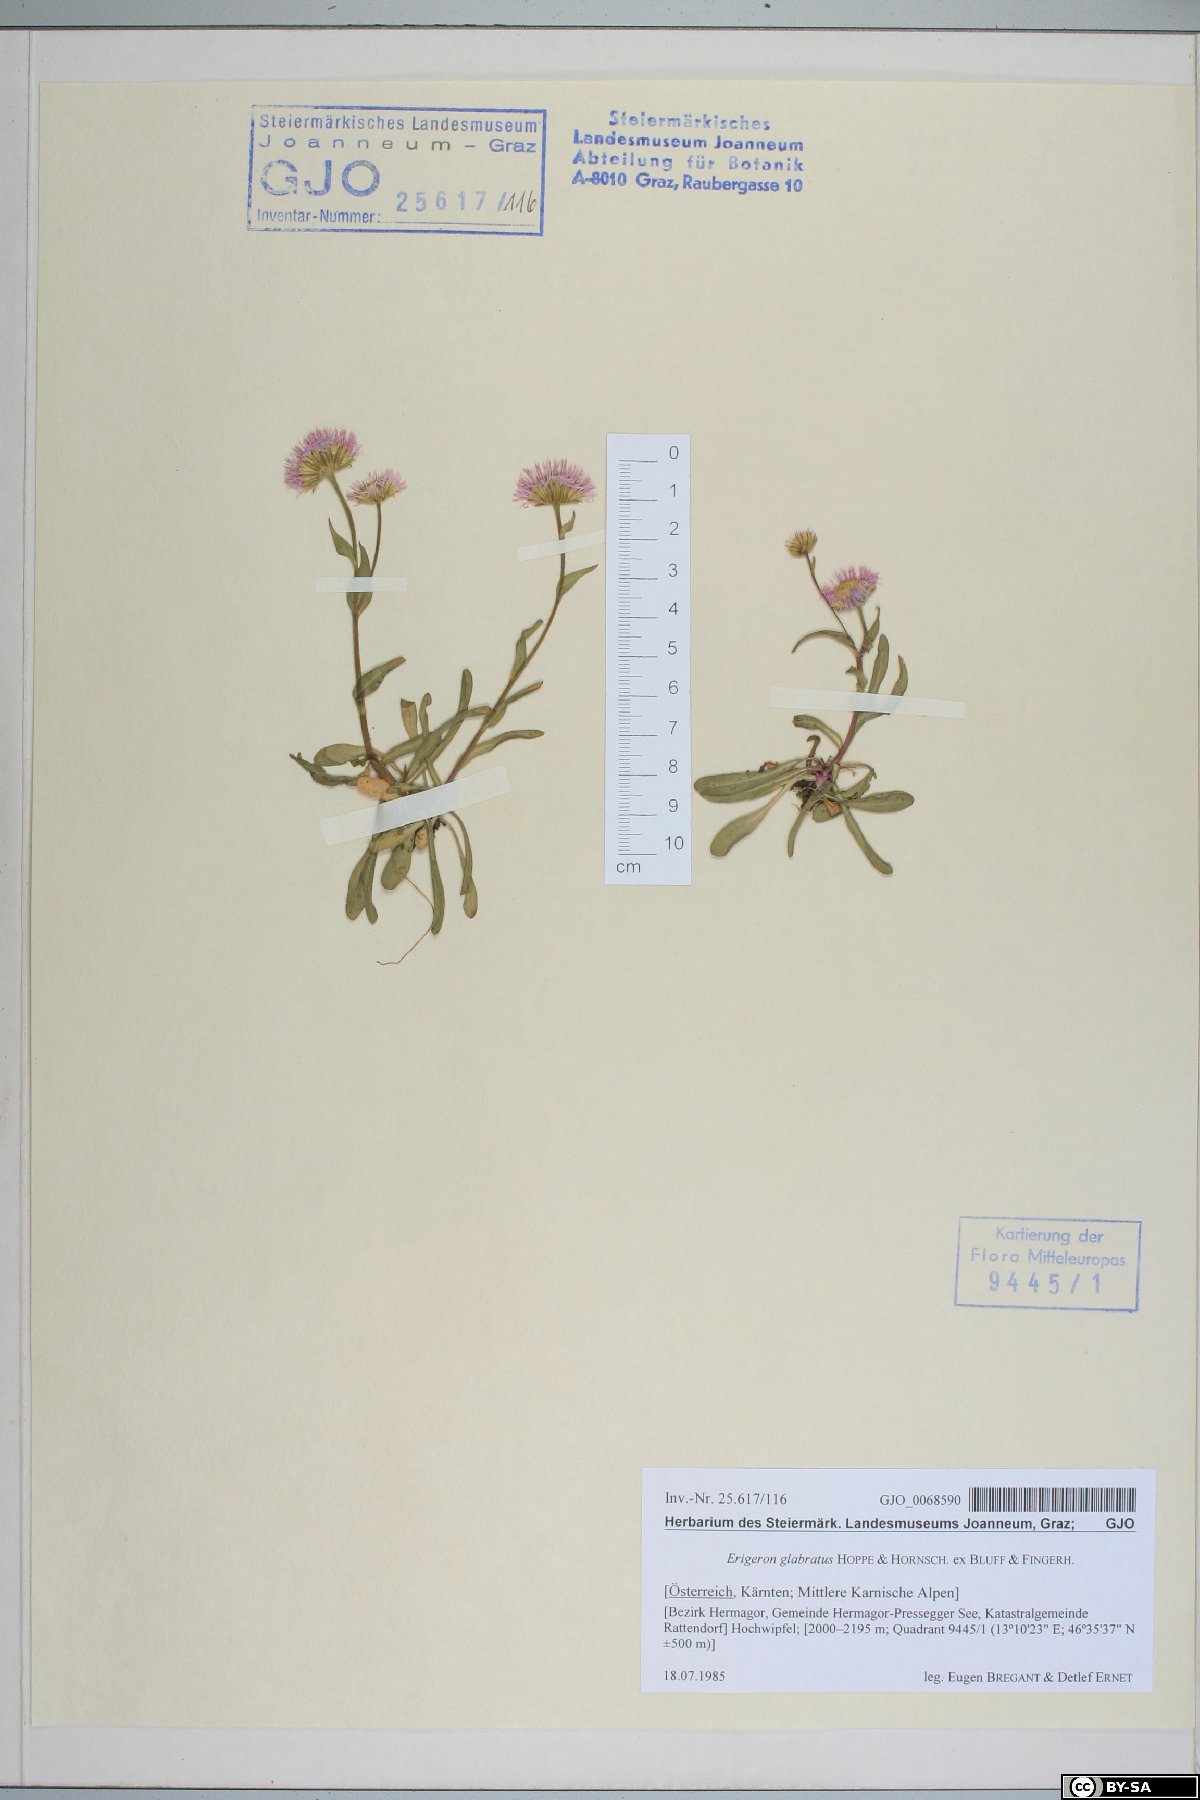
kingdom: Plantae
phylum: Tracheophyta
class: Magnoliopsida
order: Asterales
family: Asteraceae
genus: Erigeron
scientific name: Erigeron glabratus
